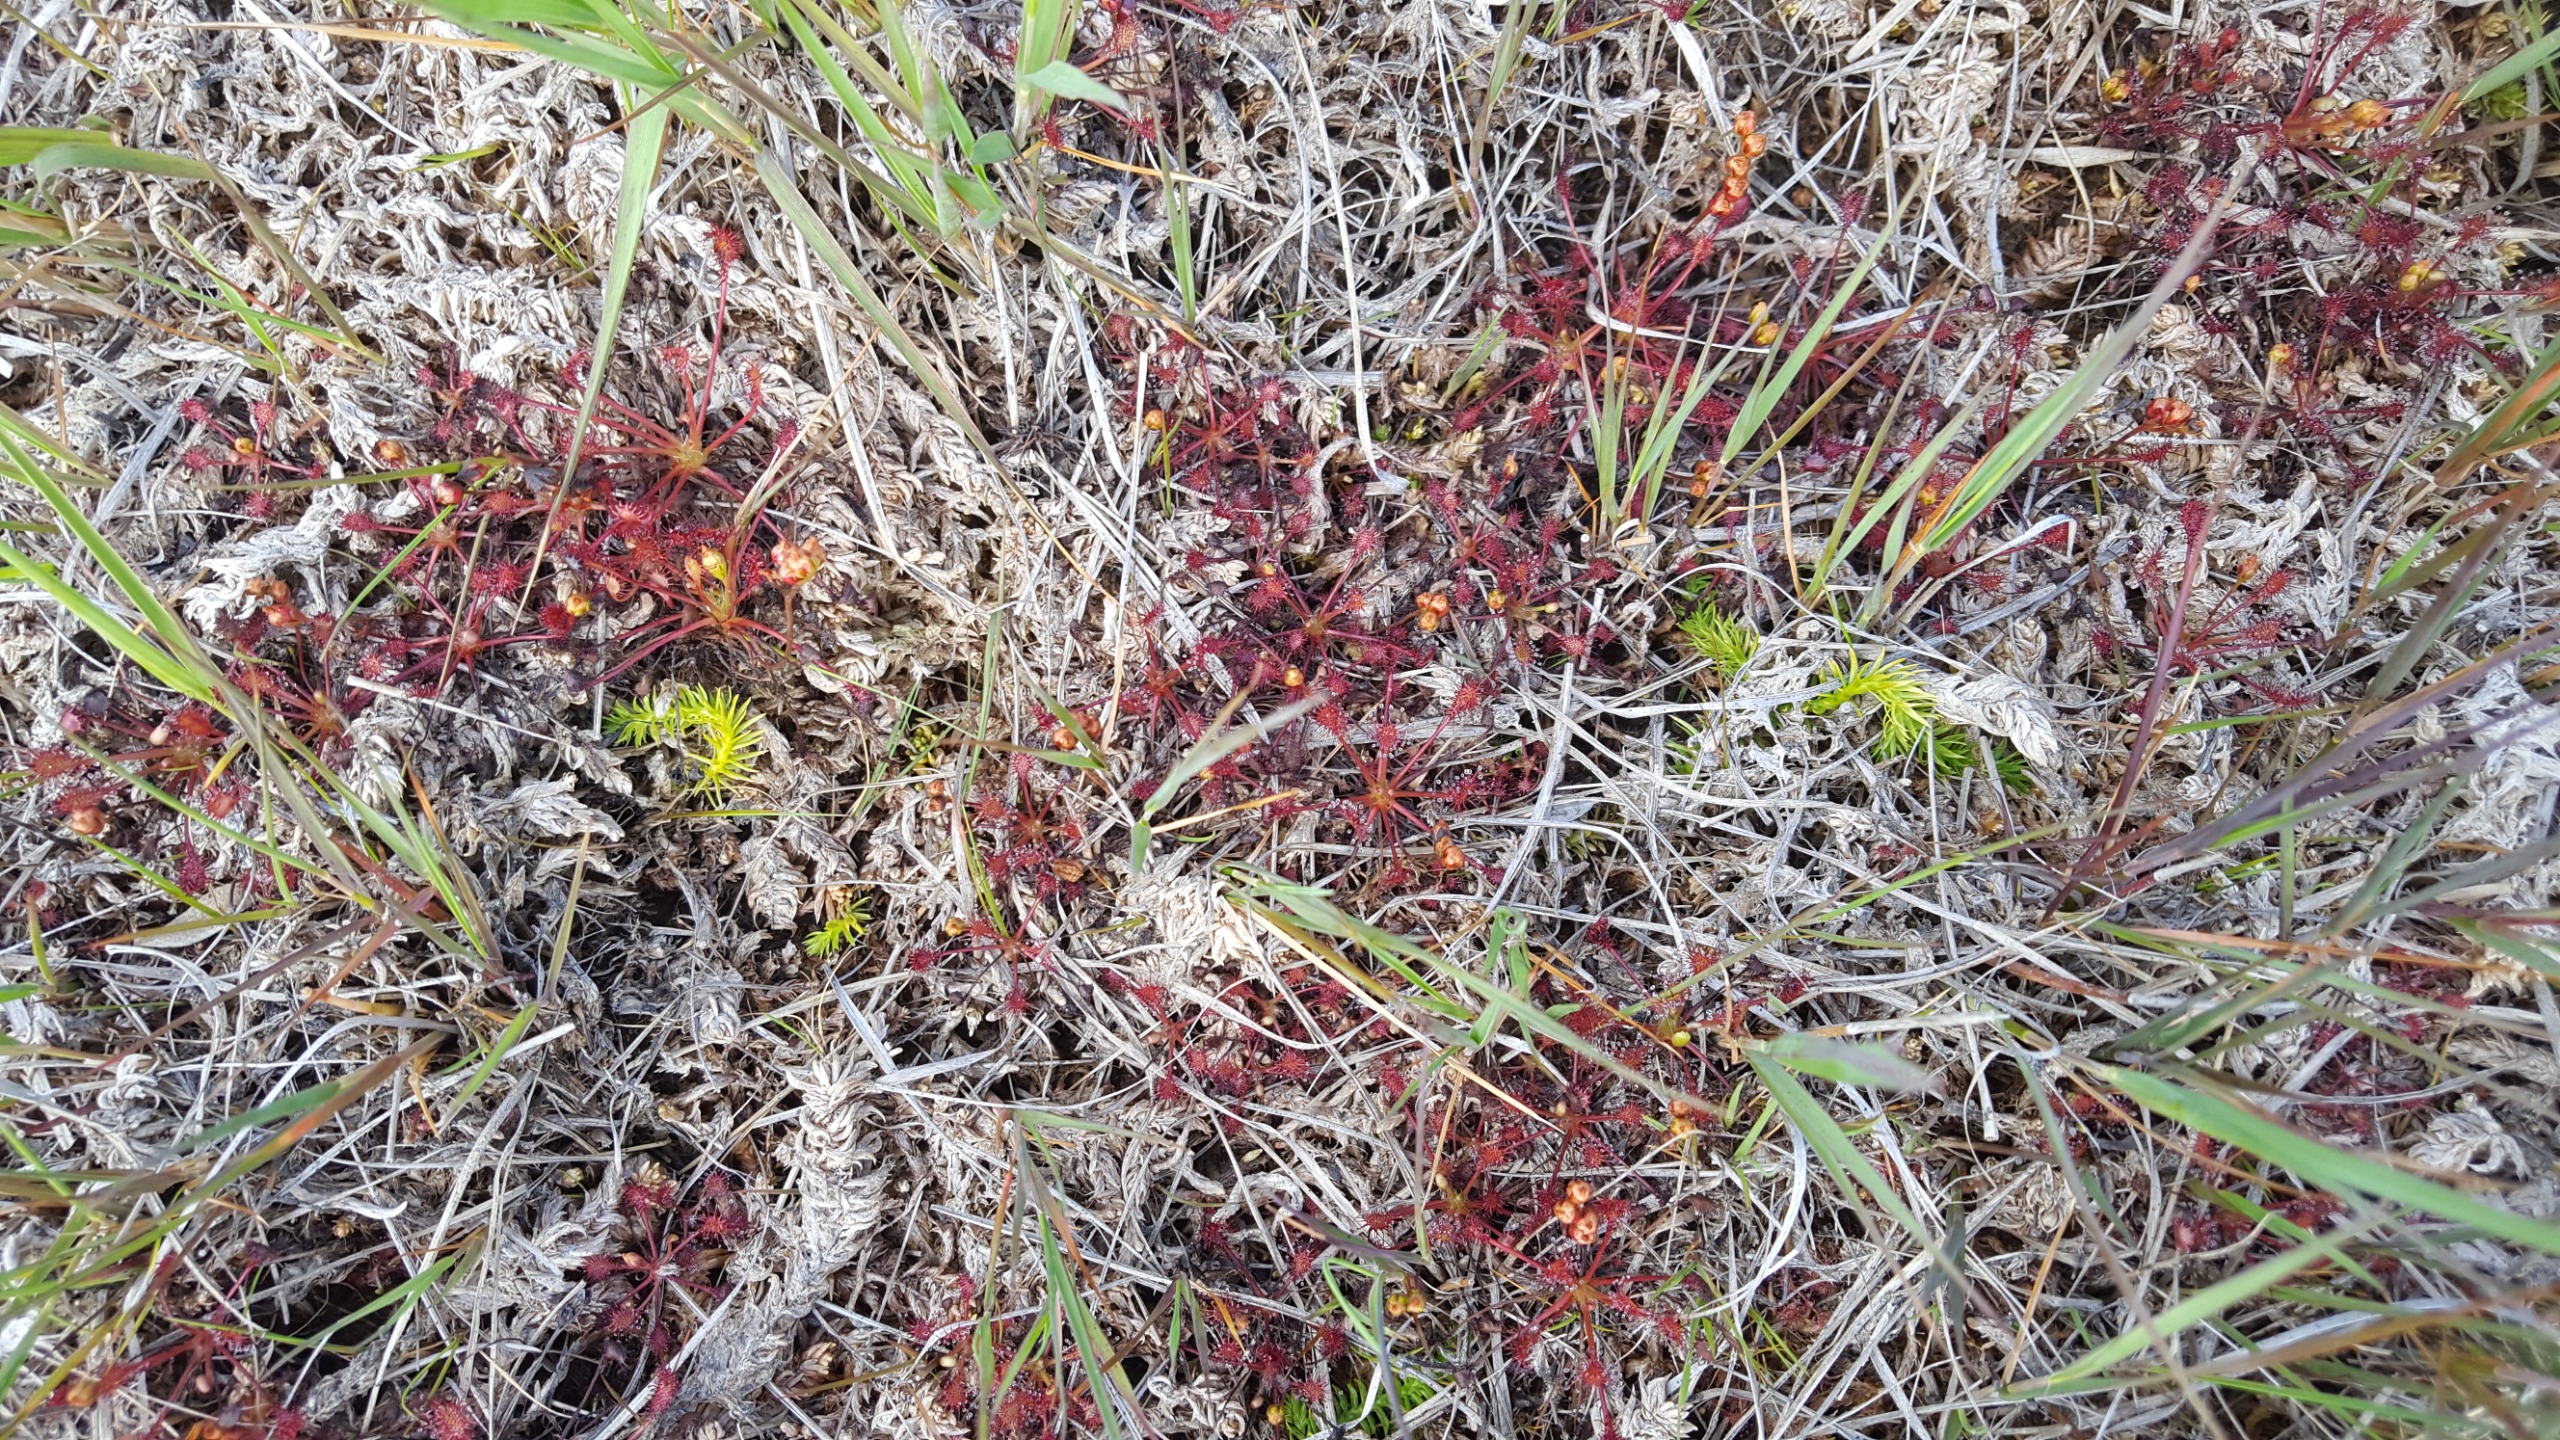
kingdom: Plantae
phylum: Tracheophyta
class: Magnoliopsida
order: Caryophyllales
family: Droseraceae
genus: Drosera
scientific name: Drosera intermedia
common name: Liden soldug
